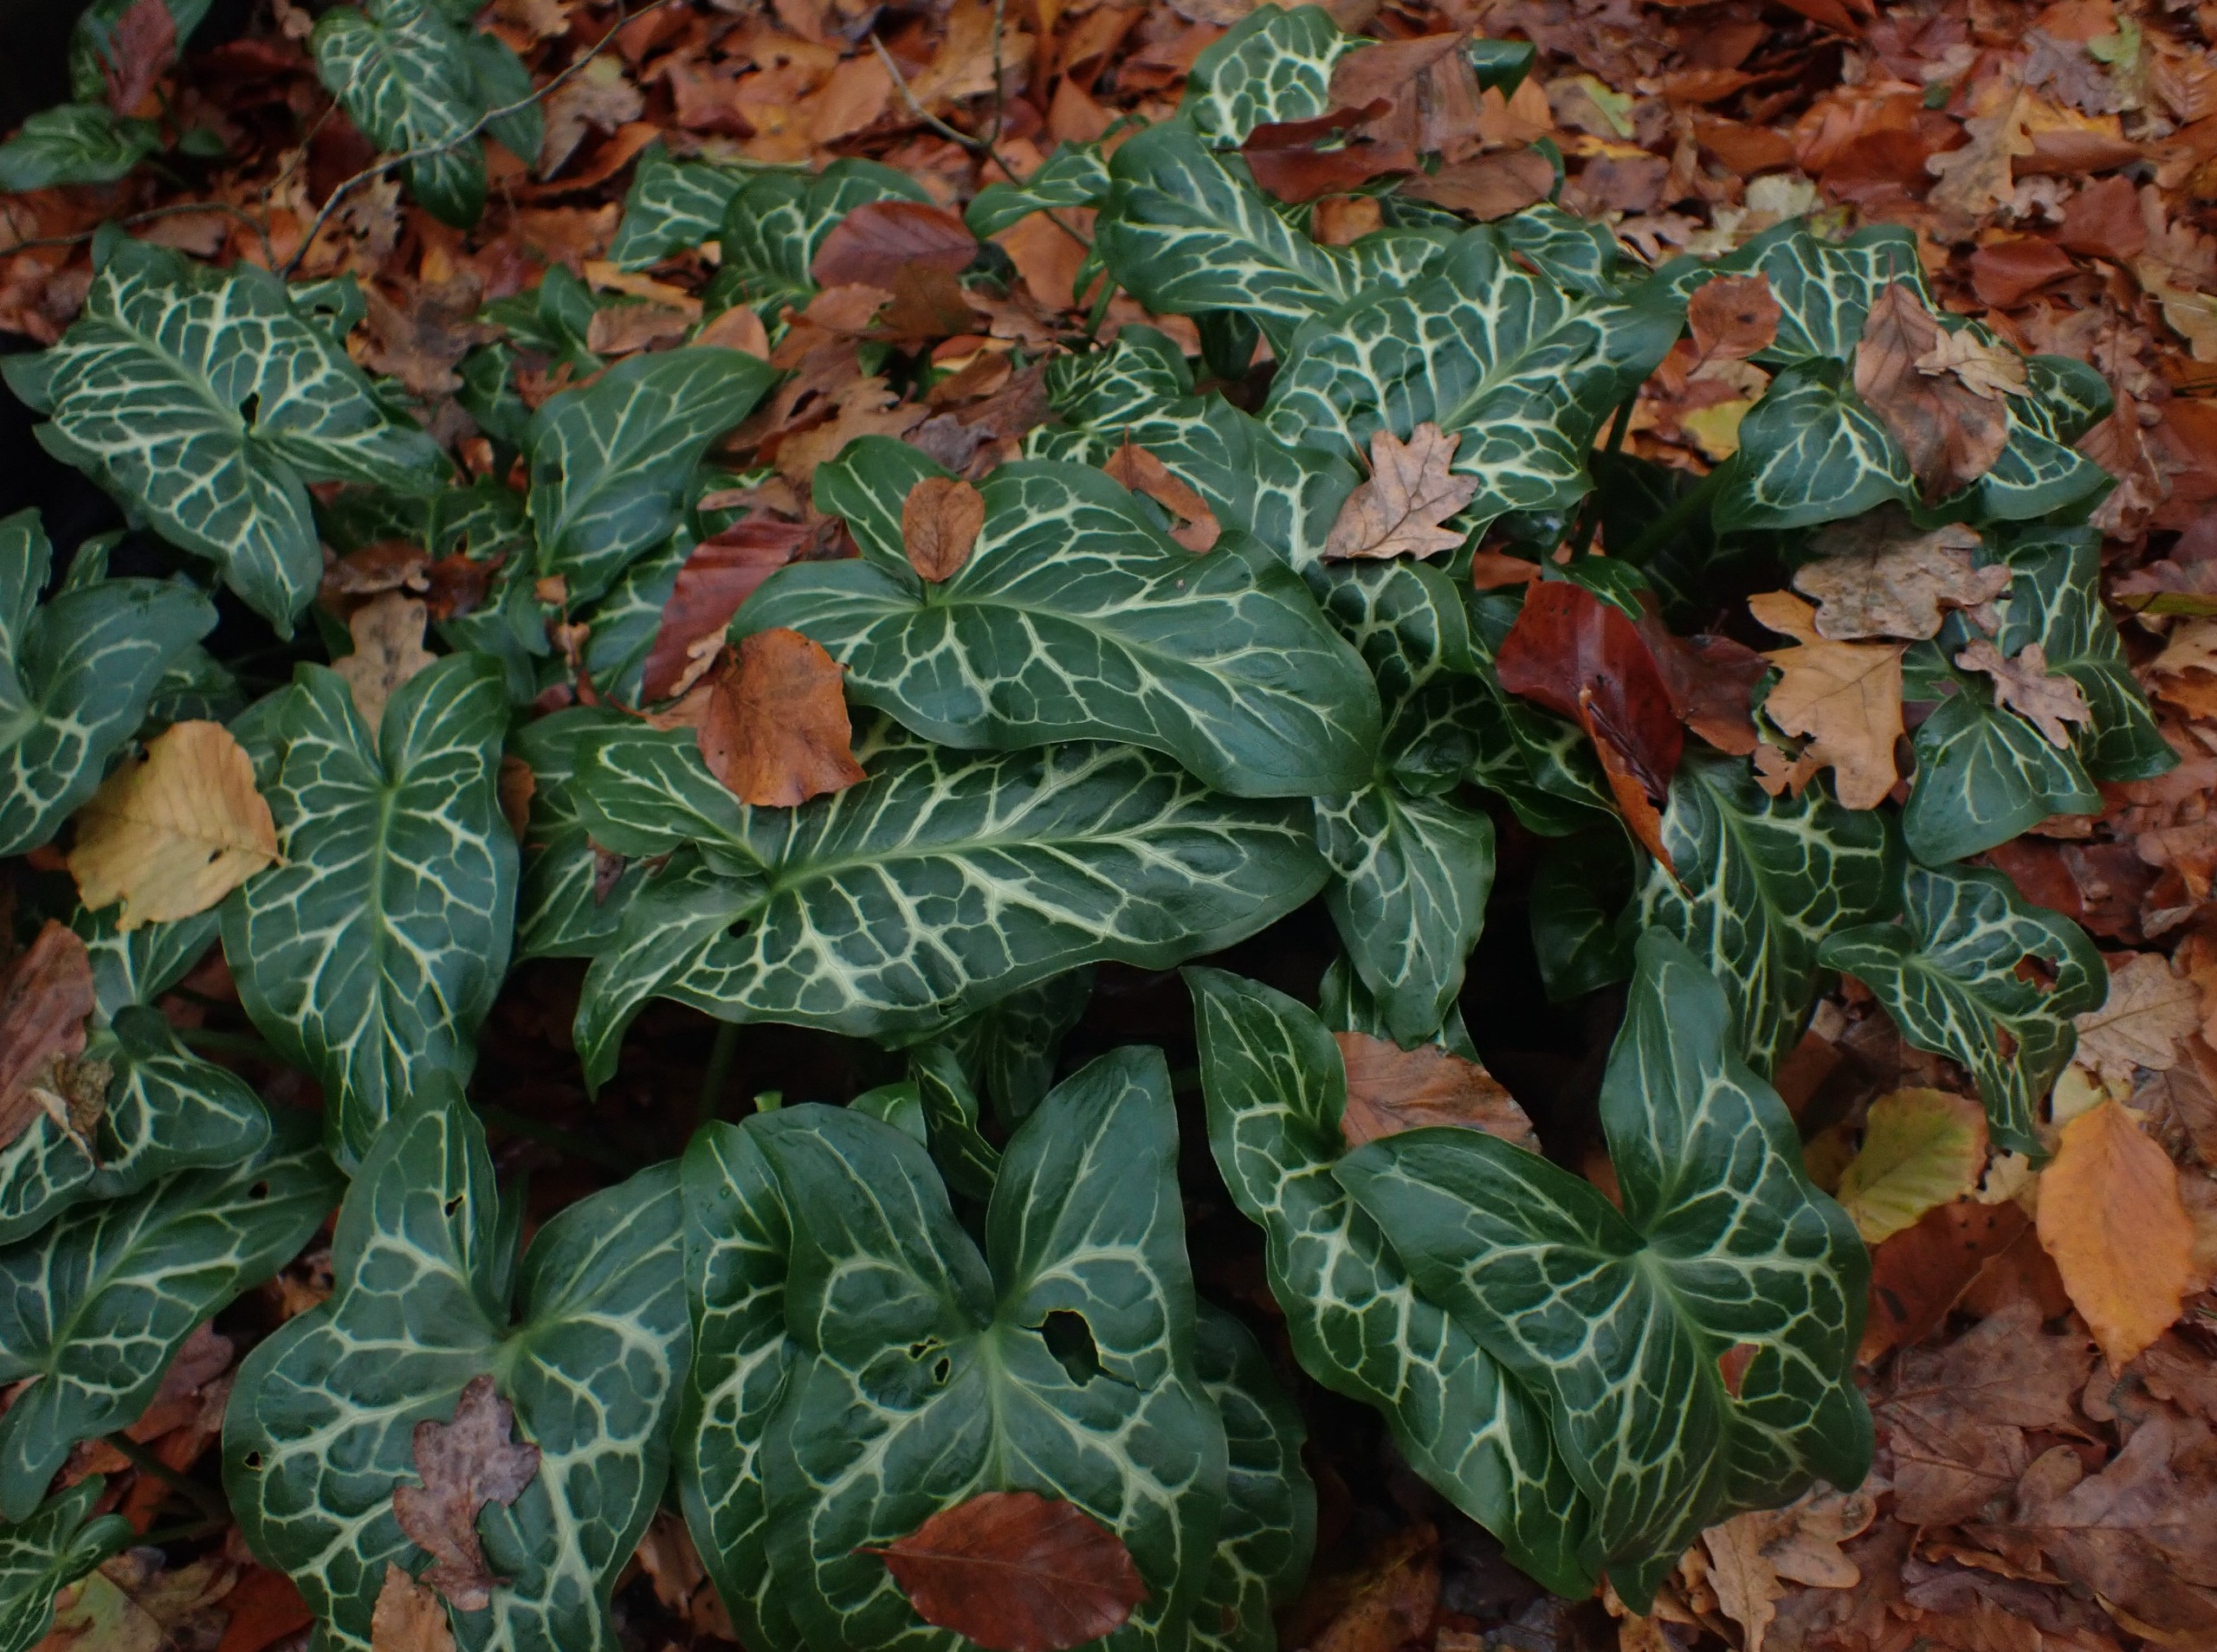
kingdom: Plantae
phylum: Tracheophyta
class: Liliopsida
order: Alismatales
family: Araceae
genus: Arum
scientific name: Arum italicum
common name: Italiensk arum
